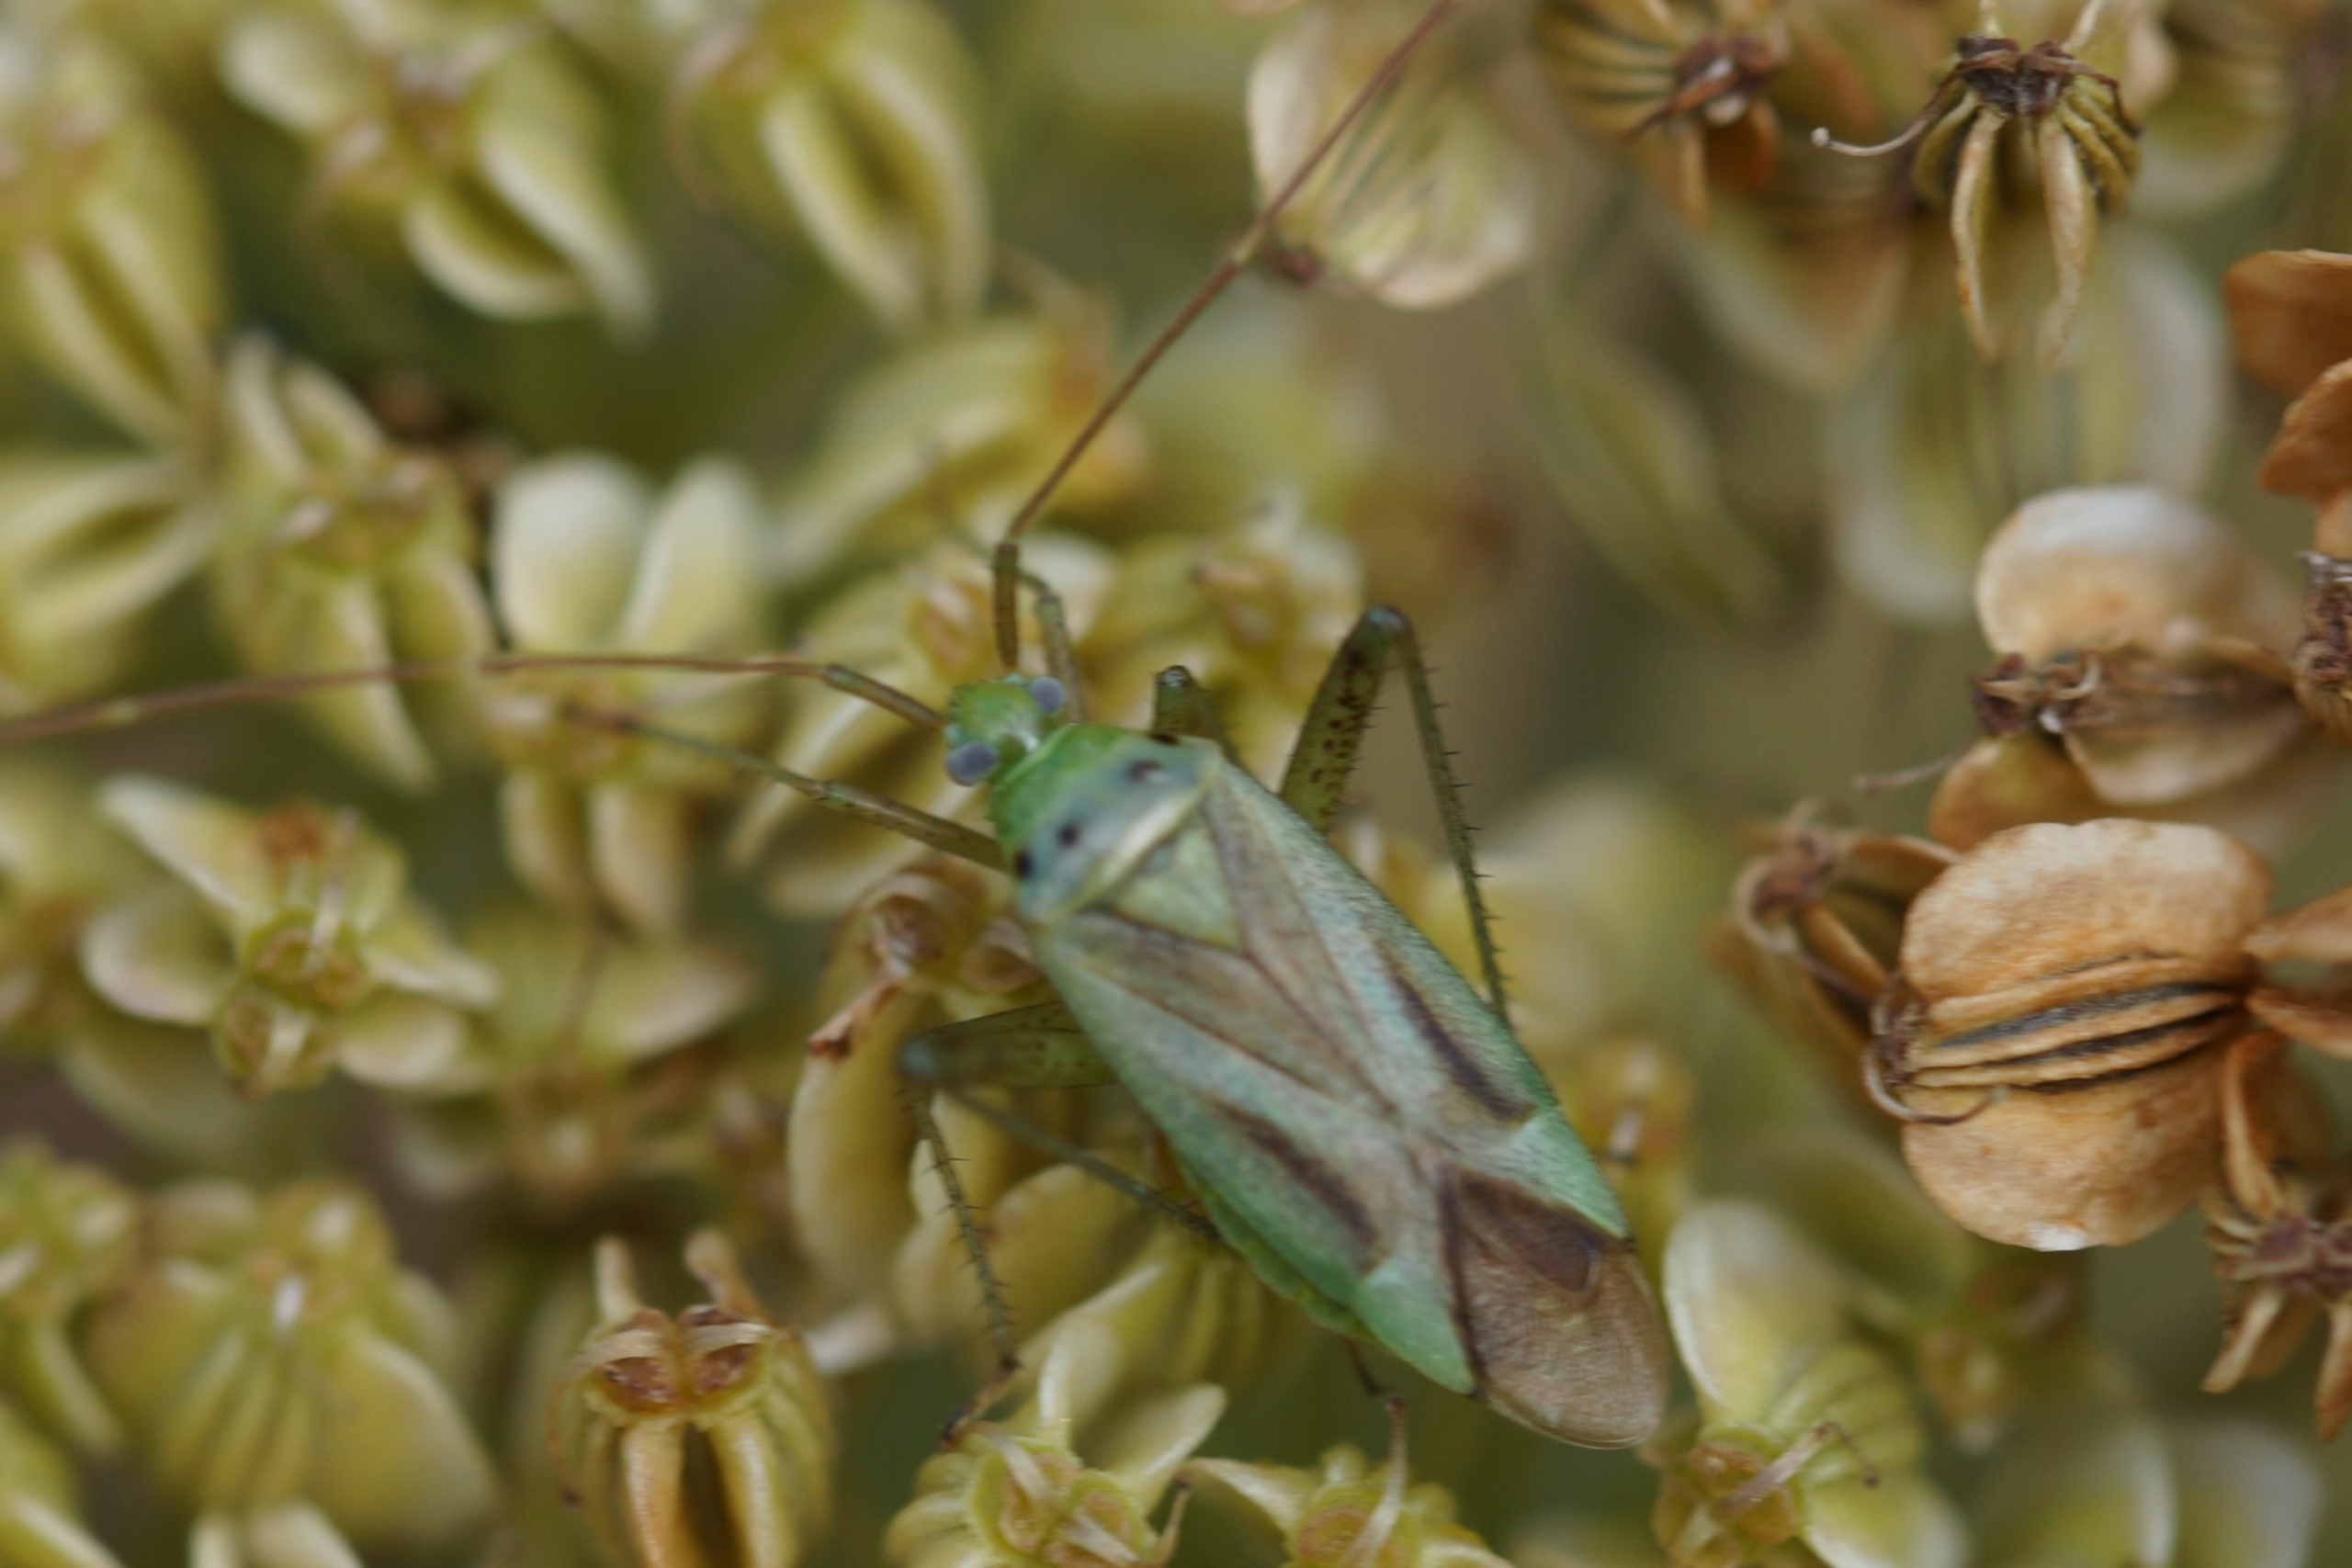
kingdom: Animalia
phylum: Arthropoda
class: Insecta
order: Hemiptera
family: Miridae
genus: Adelphocoris
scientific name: Adelphocoris quadripunctatus
